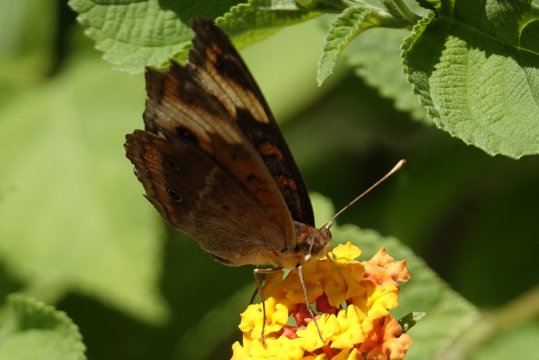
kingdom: Animalia
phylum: Arthropoda
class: Insecta
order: Lepidoptera
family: Nymphalidae
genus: Junonia
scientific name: Junonia lavinia
